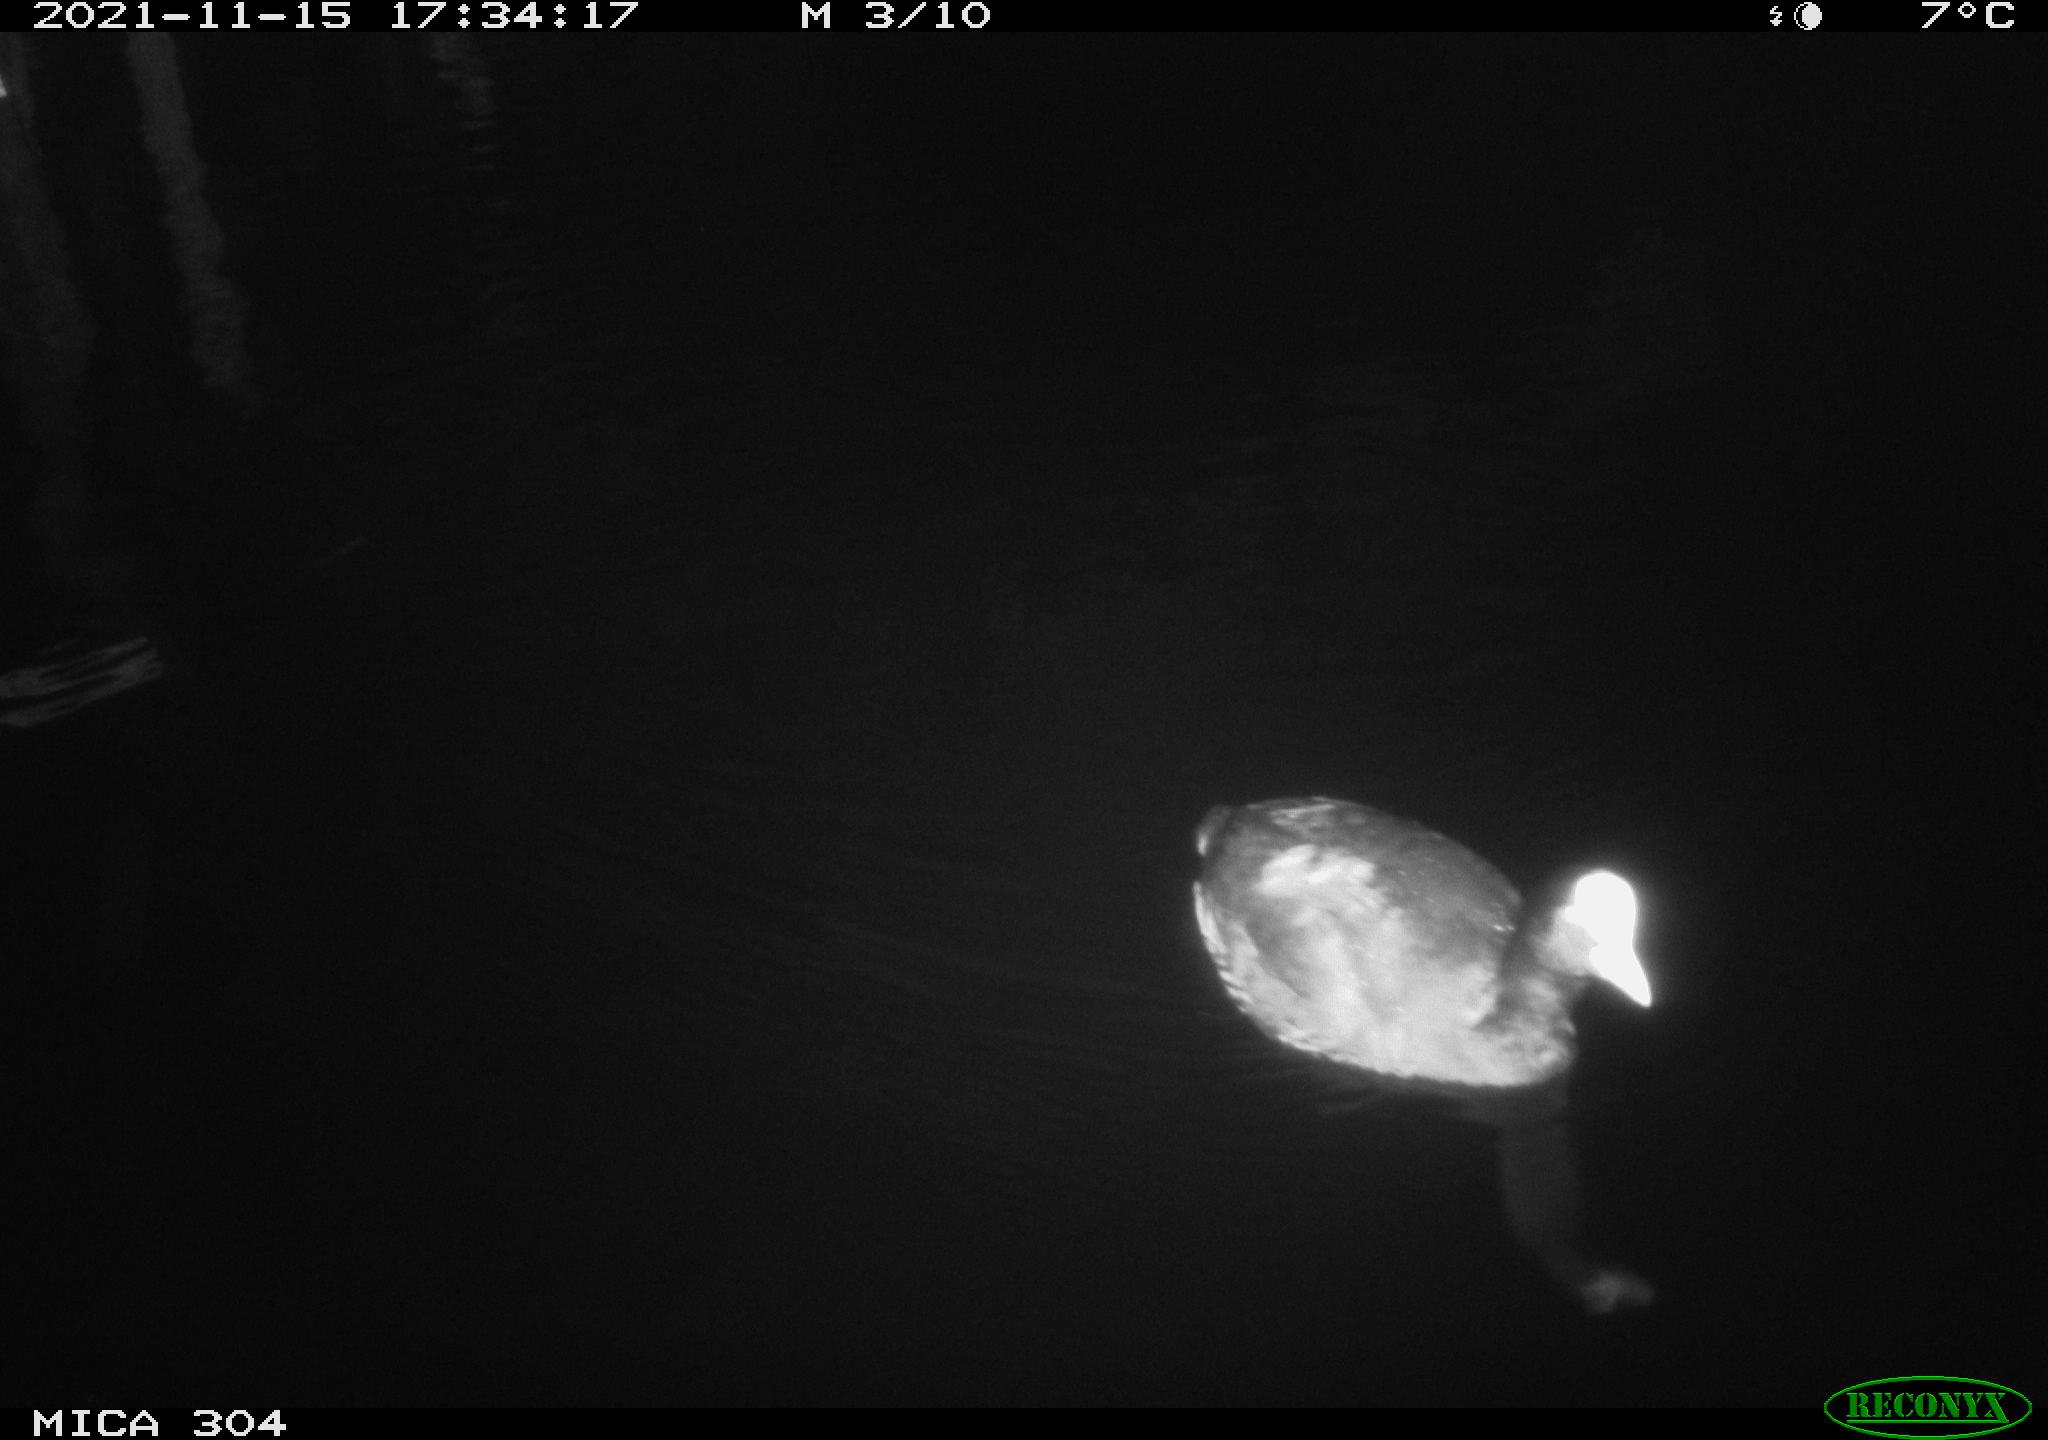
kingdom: Animalia
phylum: Chordata
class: Aves
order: Gruiformes
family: Rallidae
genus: Fulica
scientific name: Fulica atra
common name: Eurasian coot
